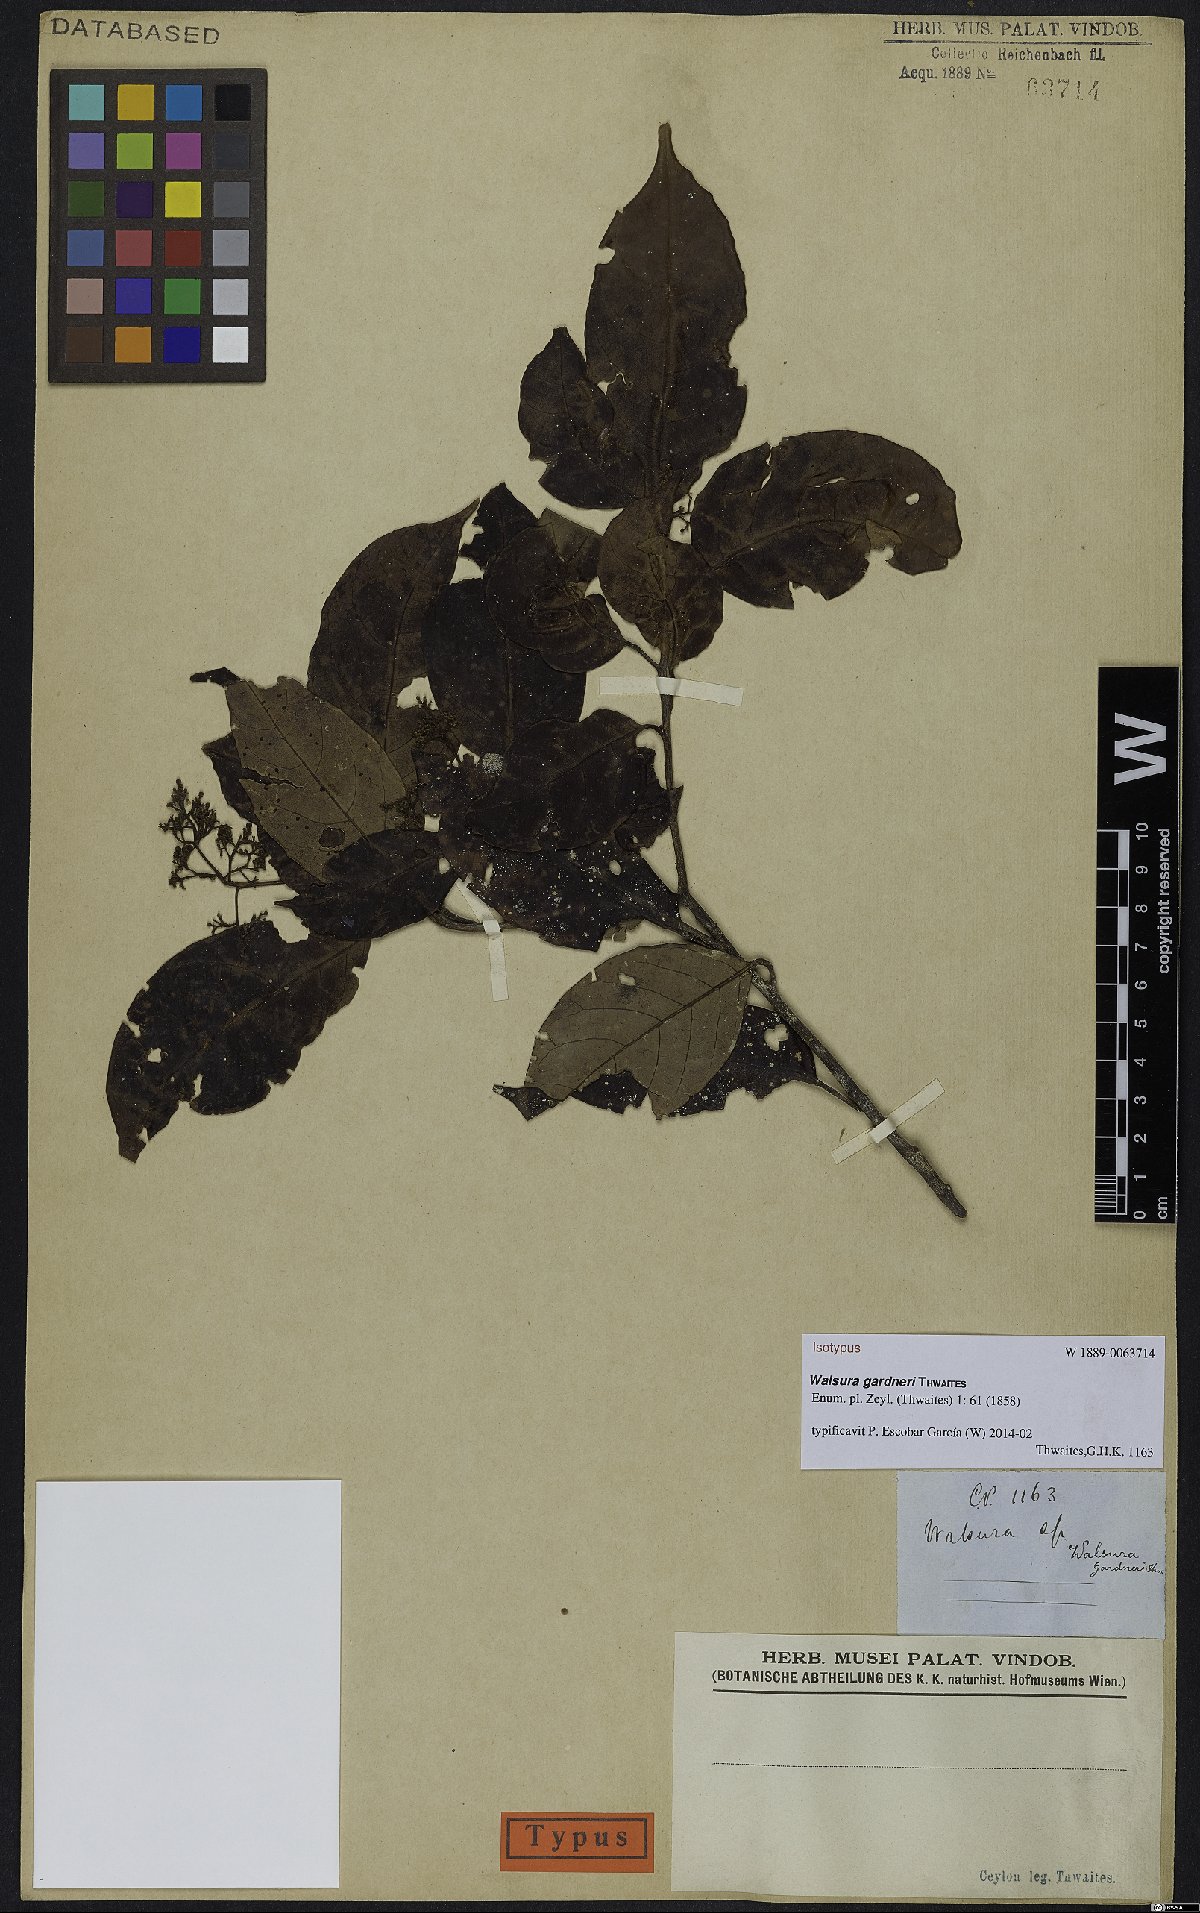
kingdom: Plantae
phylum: Tracheophyta
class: Magnoliopsida
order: Sapindales
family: Meliaceae
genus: Walsura
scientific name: Walsura gardneri
